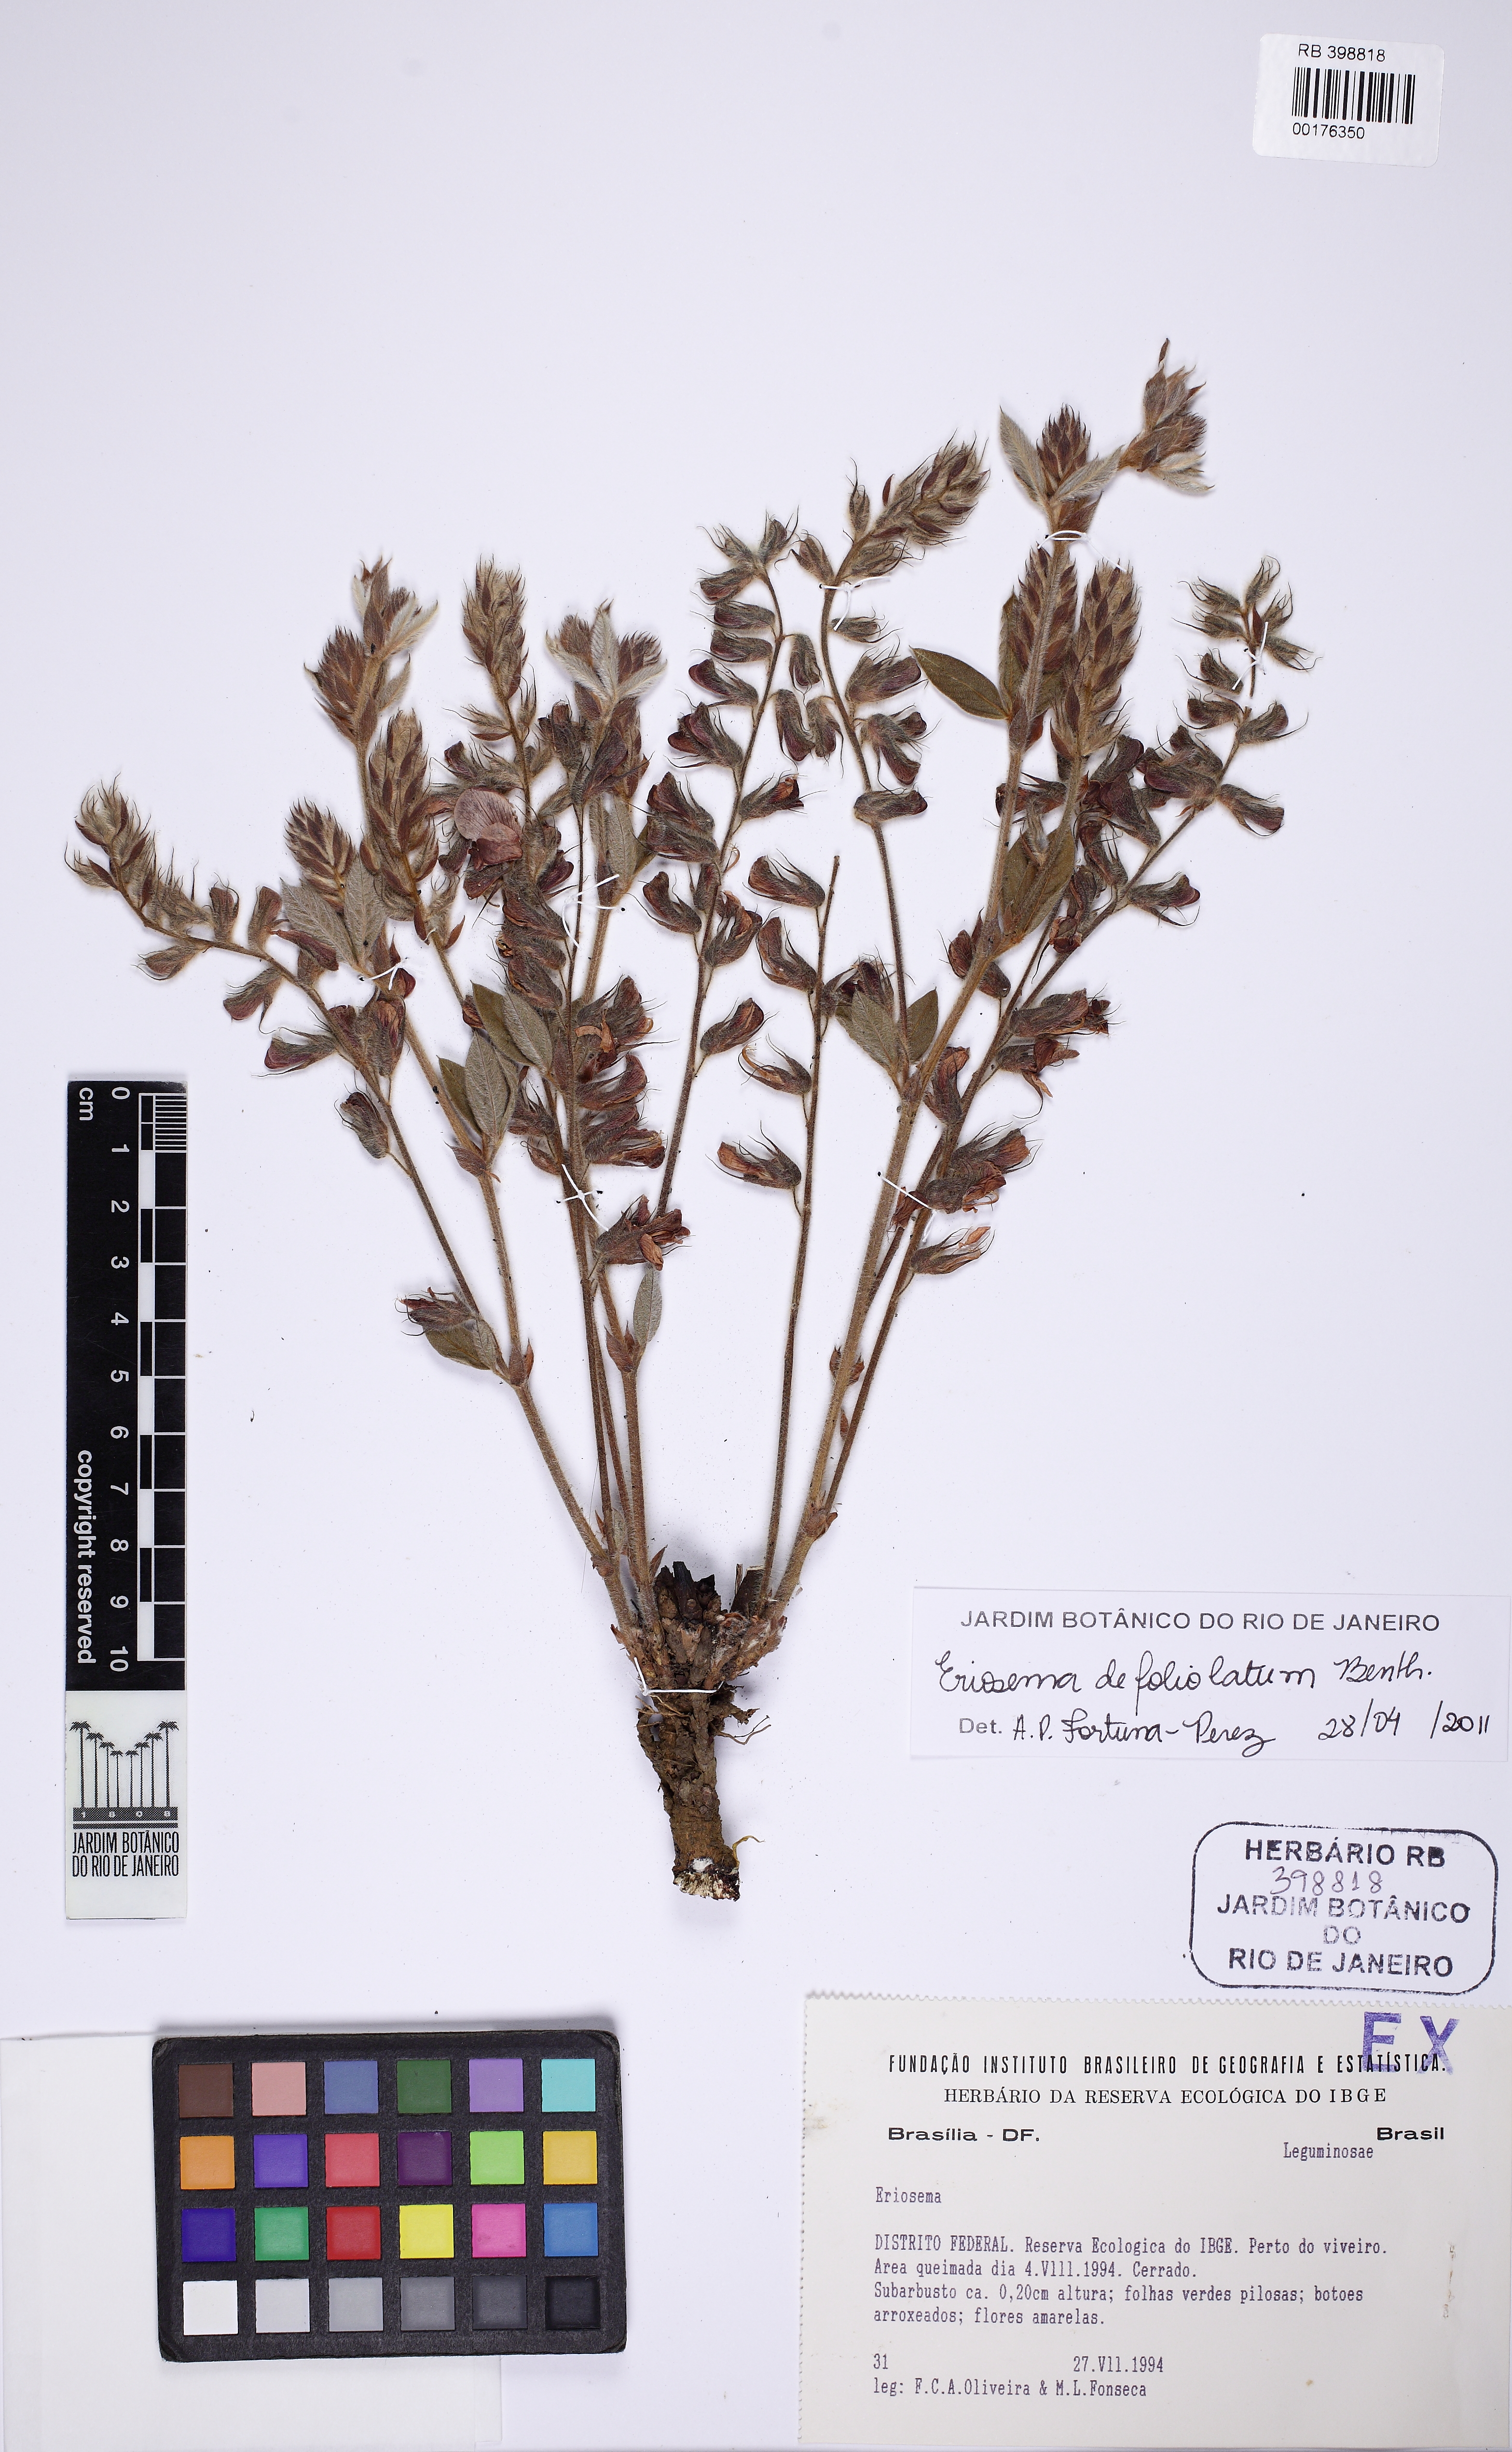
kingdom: Plantae
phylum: Tracheophyta
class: Magnoliopsida
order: Fabales
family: Fabaceae
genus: Eriosema
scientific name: Eriosema defoliatum
